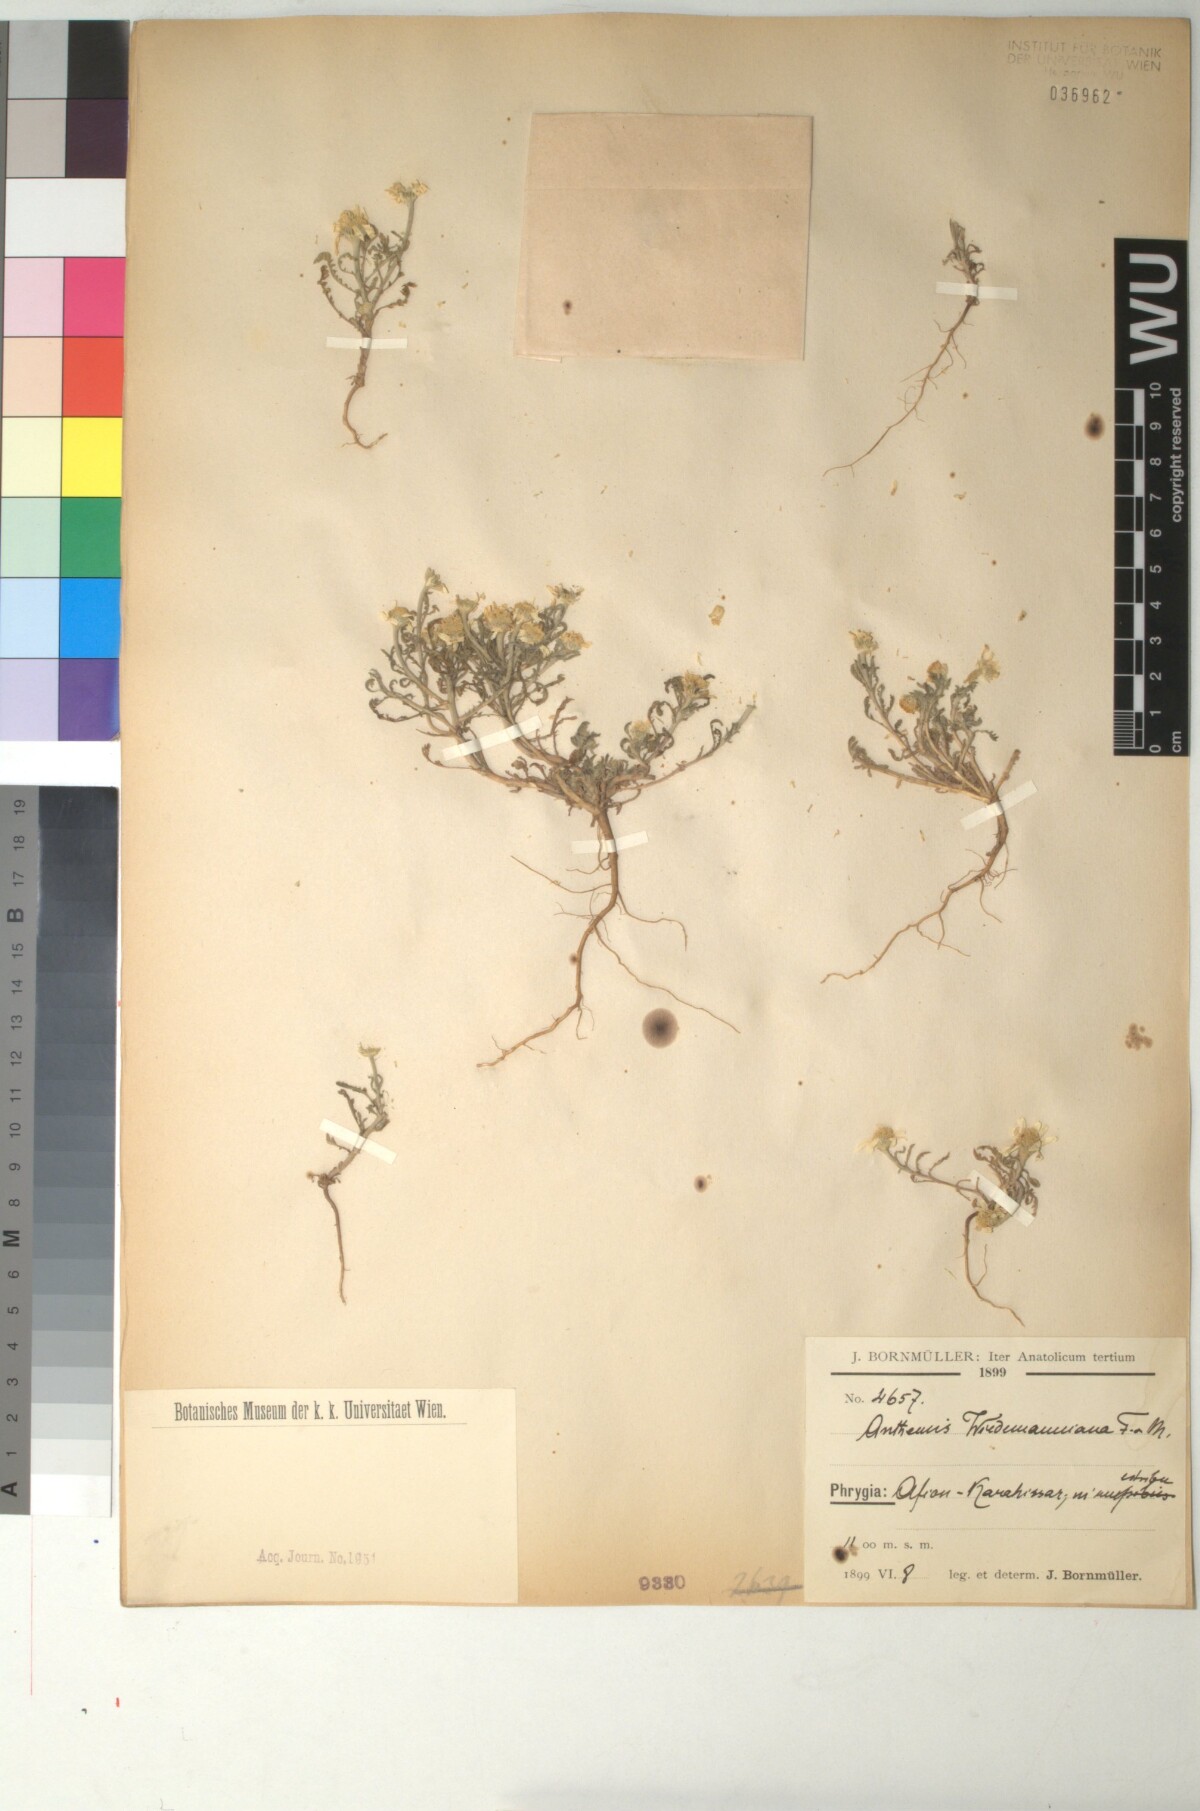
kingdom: Plantae
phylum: Tracheophyta
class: Magnoliopsida
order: Asterales
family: Asteraceae
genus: Cota
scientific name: Cota wiedemanniana
